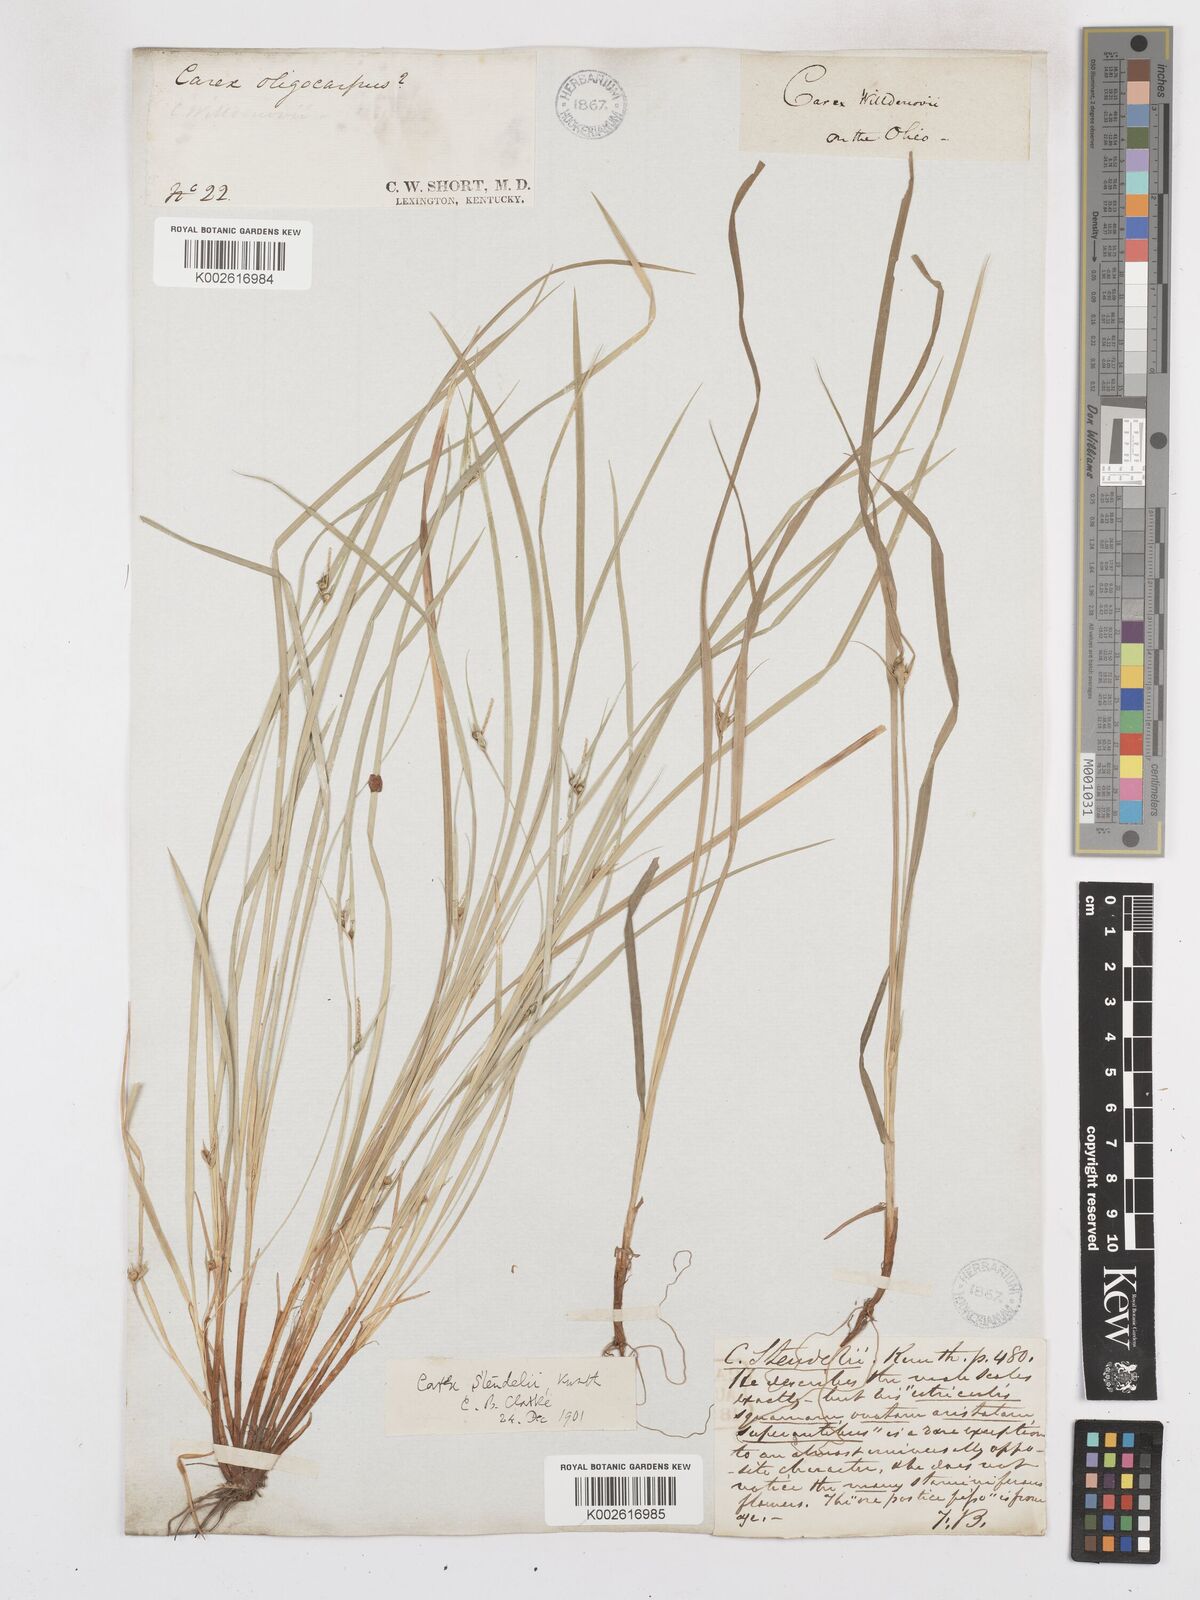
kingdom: Plantae
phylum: Tracheophyta
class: Liliopsida
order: Poales
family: Cyperaceae
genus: Carex
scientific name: Carex jamesii
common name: Grass sedge
